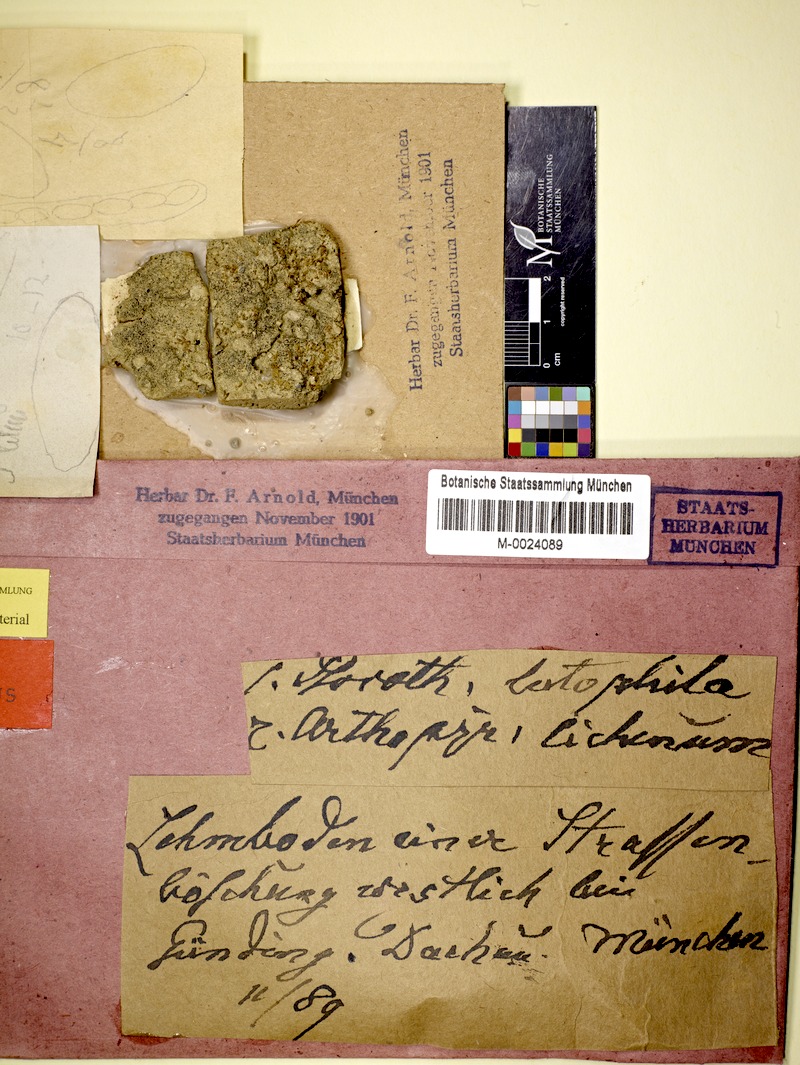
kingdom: Fungi
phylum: Ascomycota
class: Lichinomycetes
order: Lichinales
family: Lichinaceae
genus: Psorotichia
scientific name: Psorotichia lutophila
